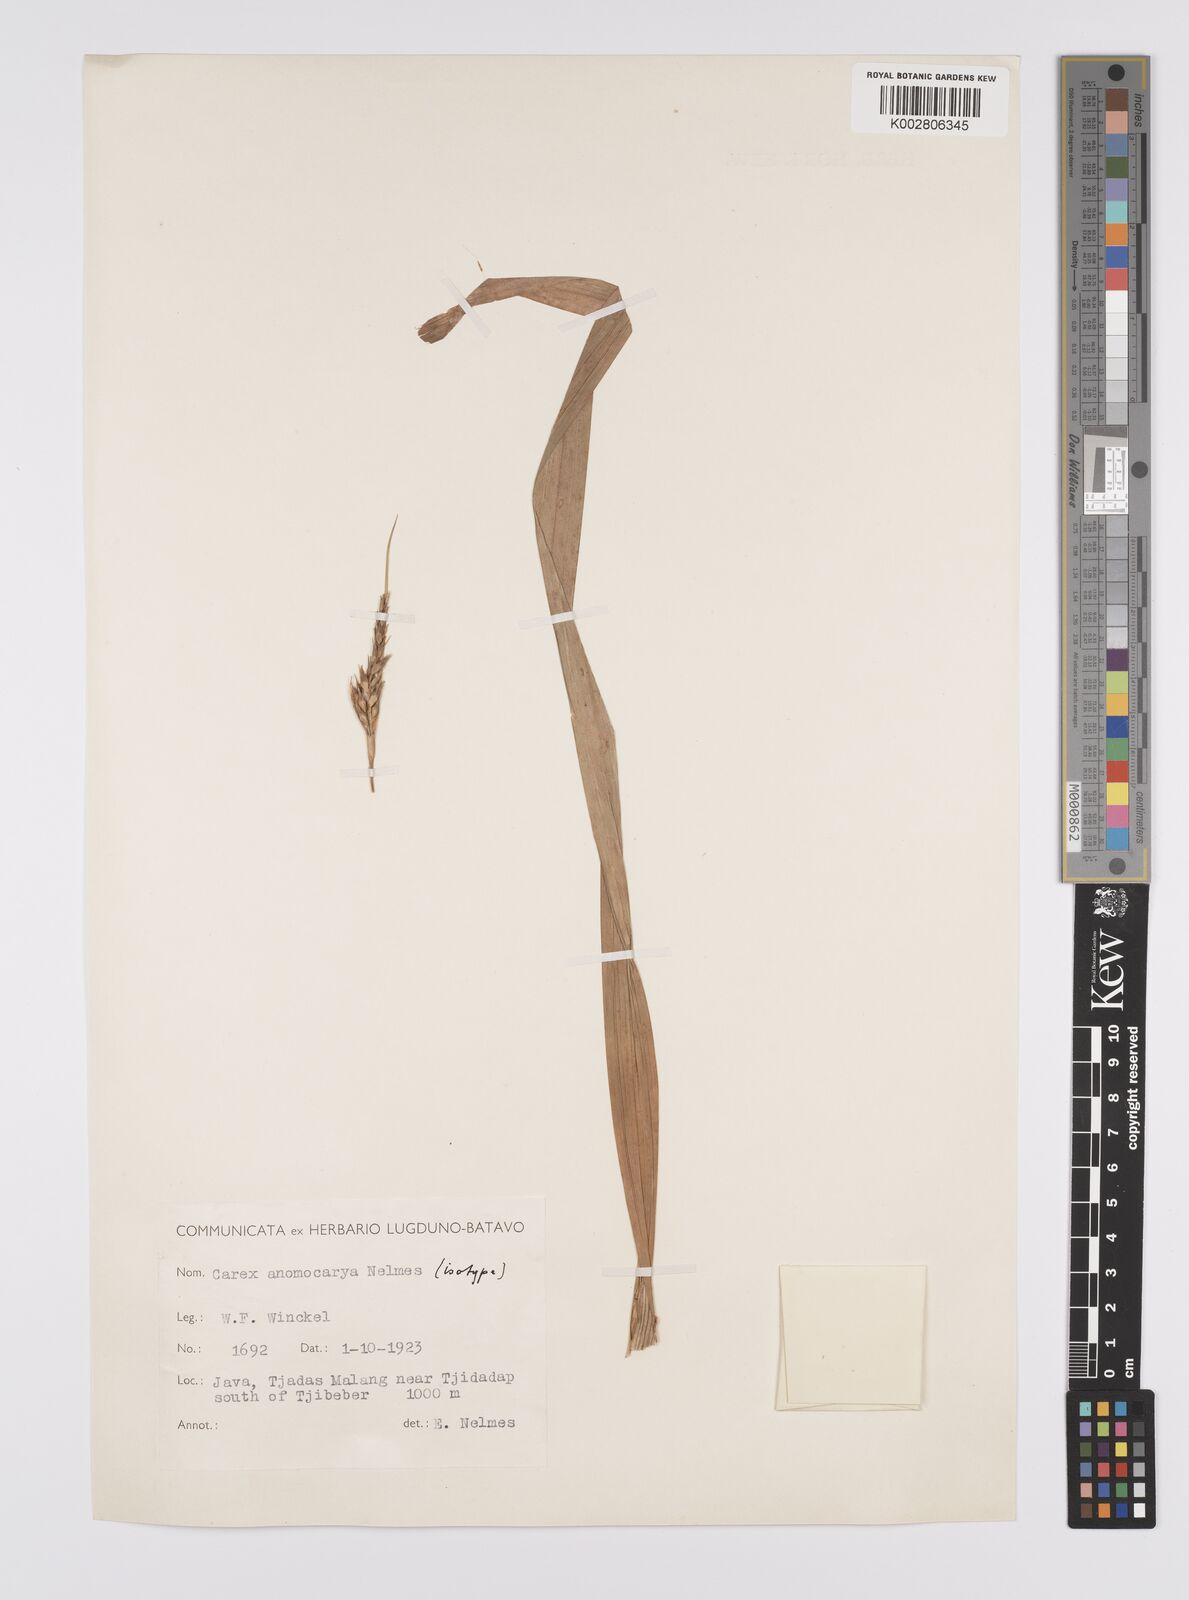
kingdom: Plantae
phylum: Tracheophyta
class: Liliopsida
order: Poales
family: Cyperaceae
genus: Carex
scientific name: Carex harlandii
